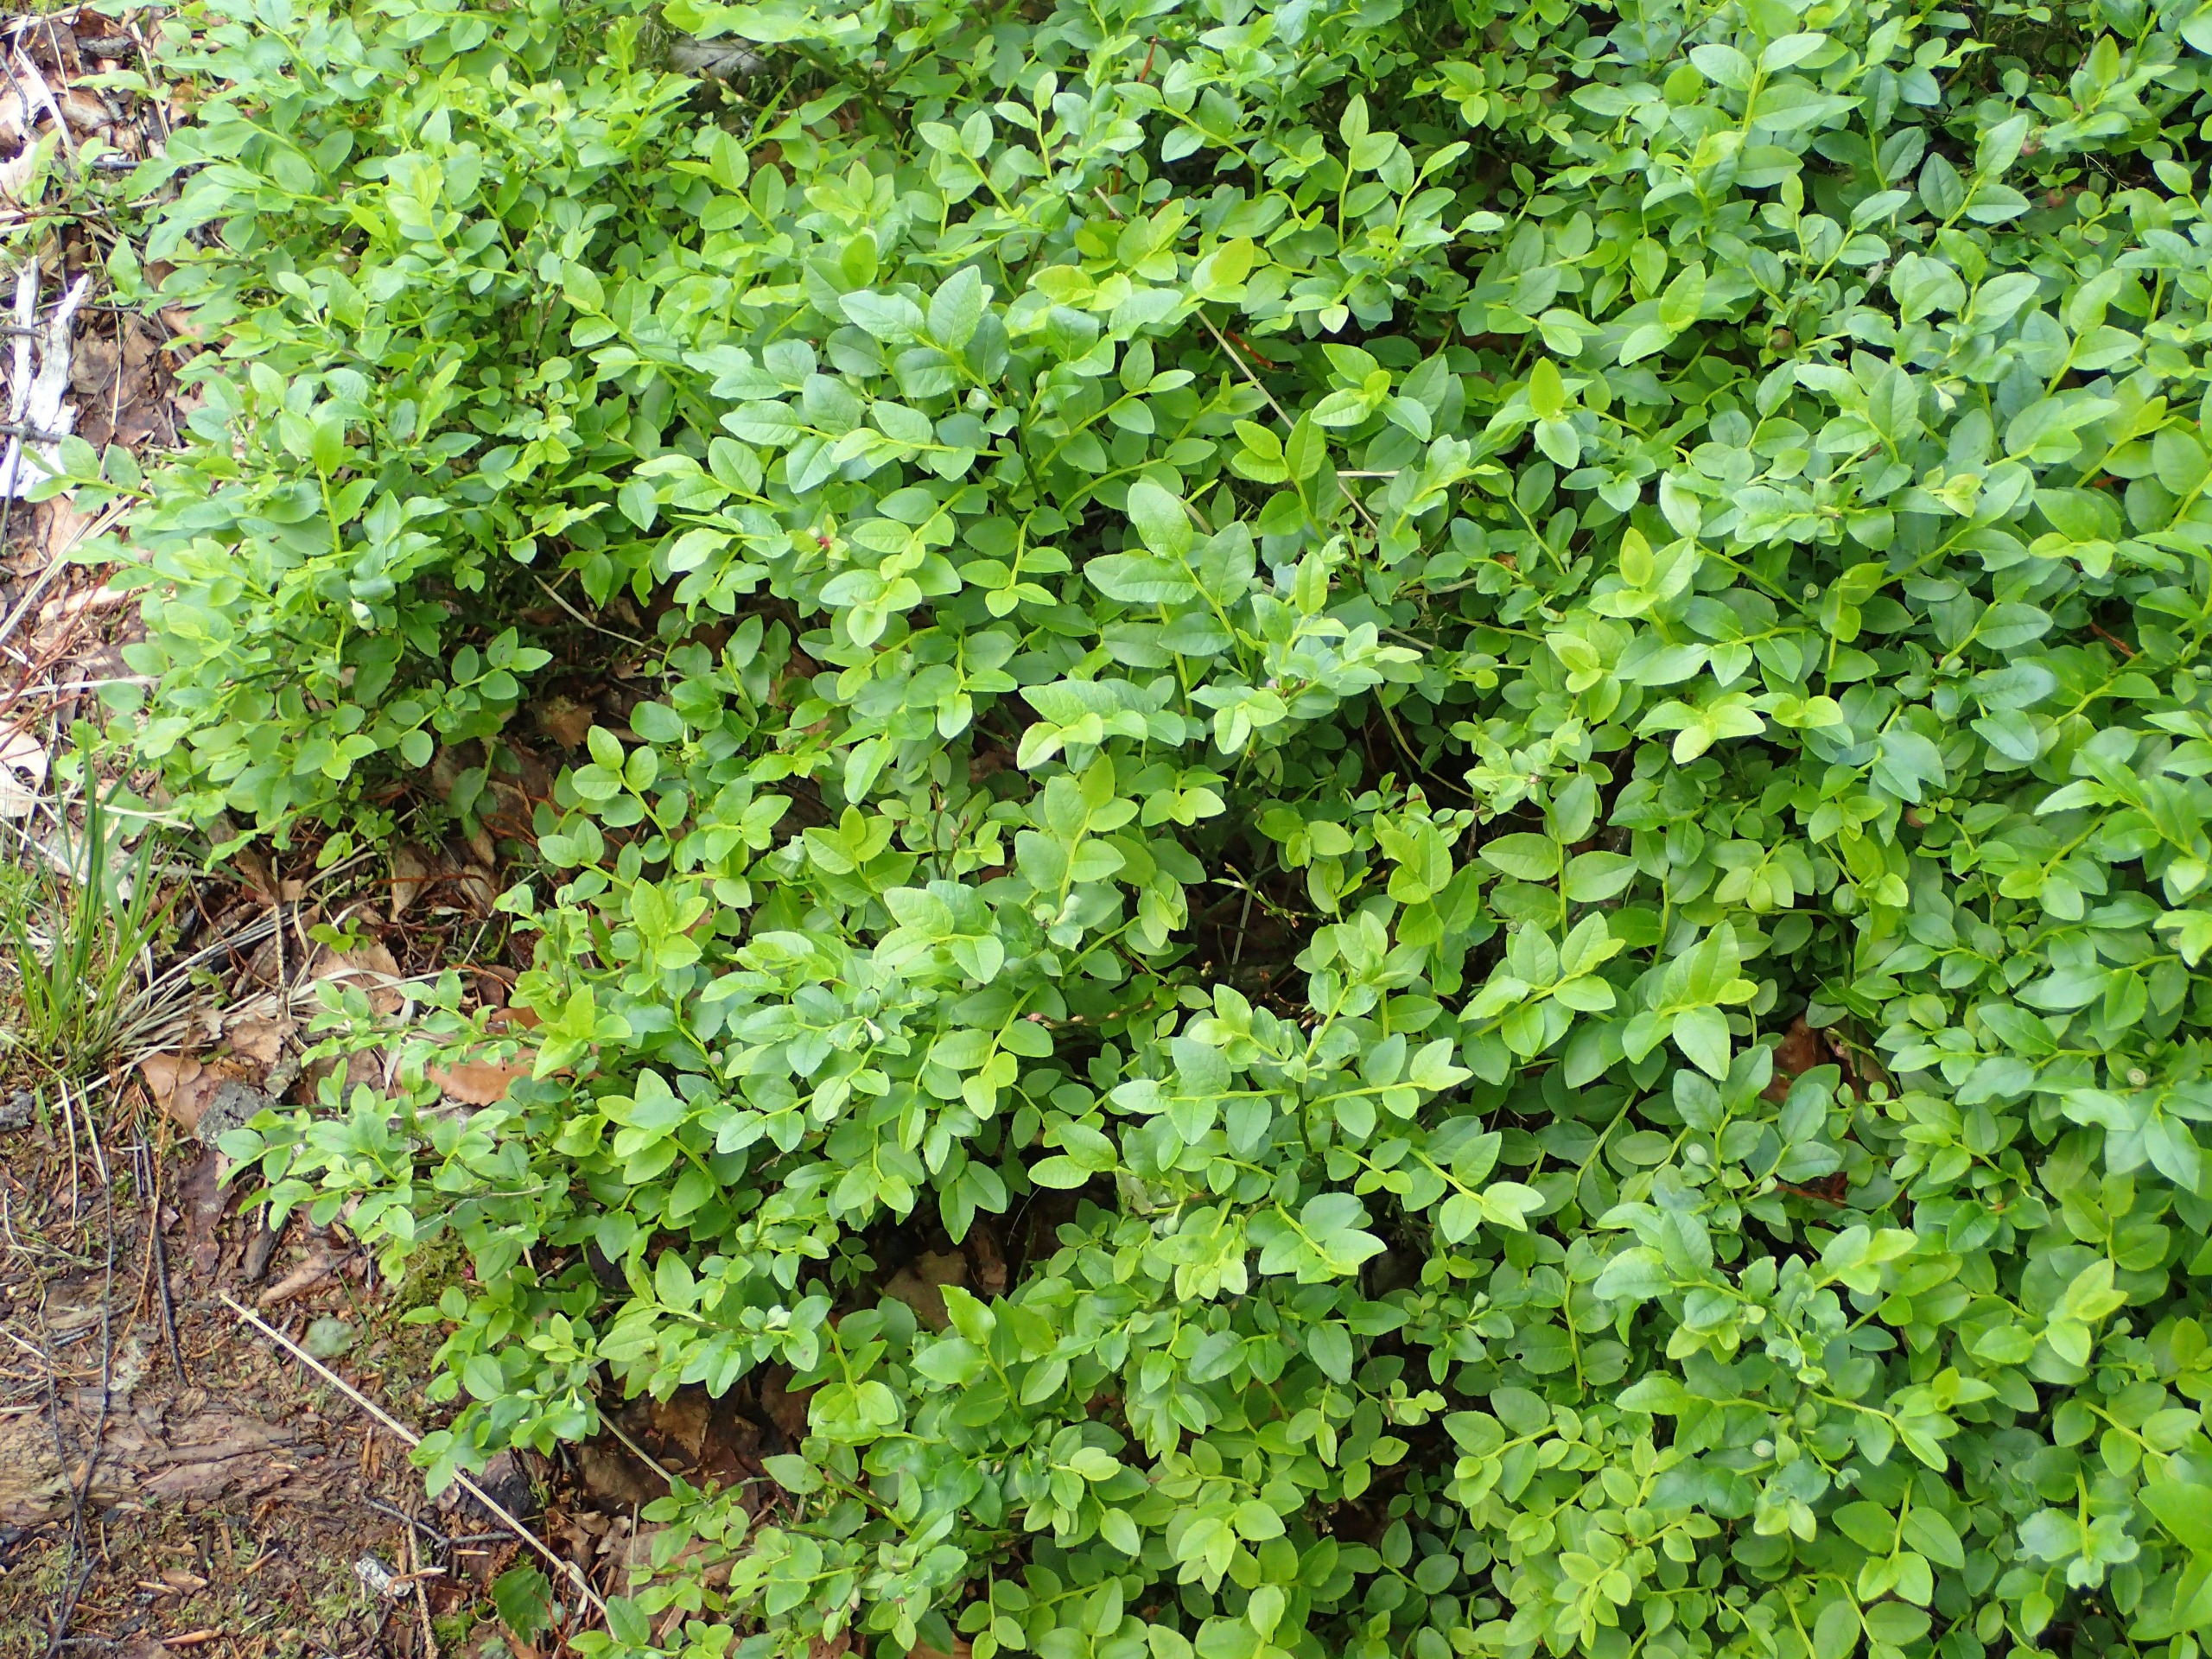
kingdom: Plantae
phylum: Tracheophyta
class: Magnoliopsida
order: Ericales
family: Ericaceae
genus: Vaccinium
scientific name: Vaccinium myrtillus
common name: Blåbær
